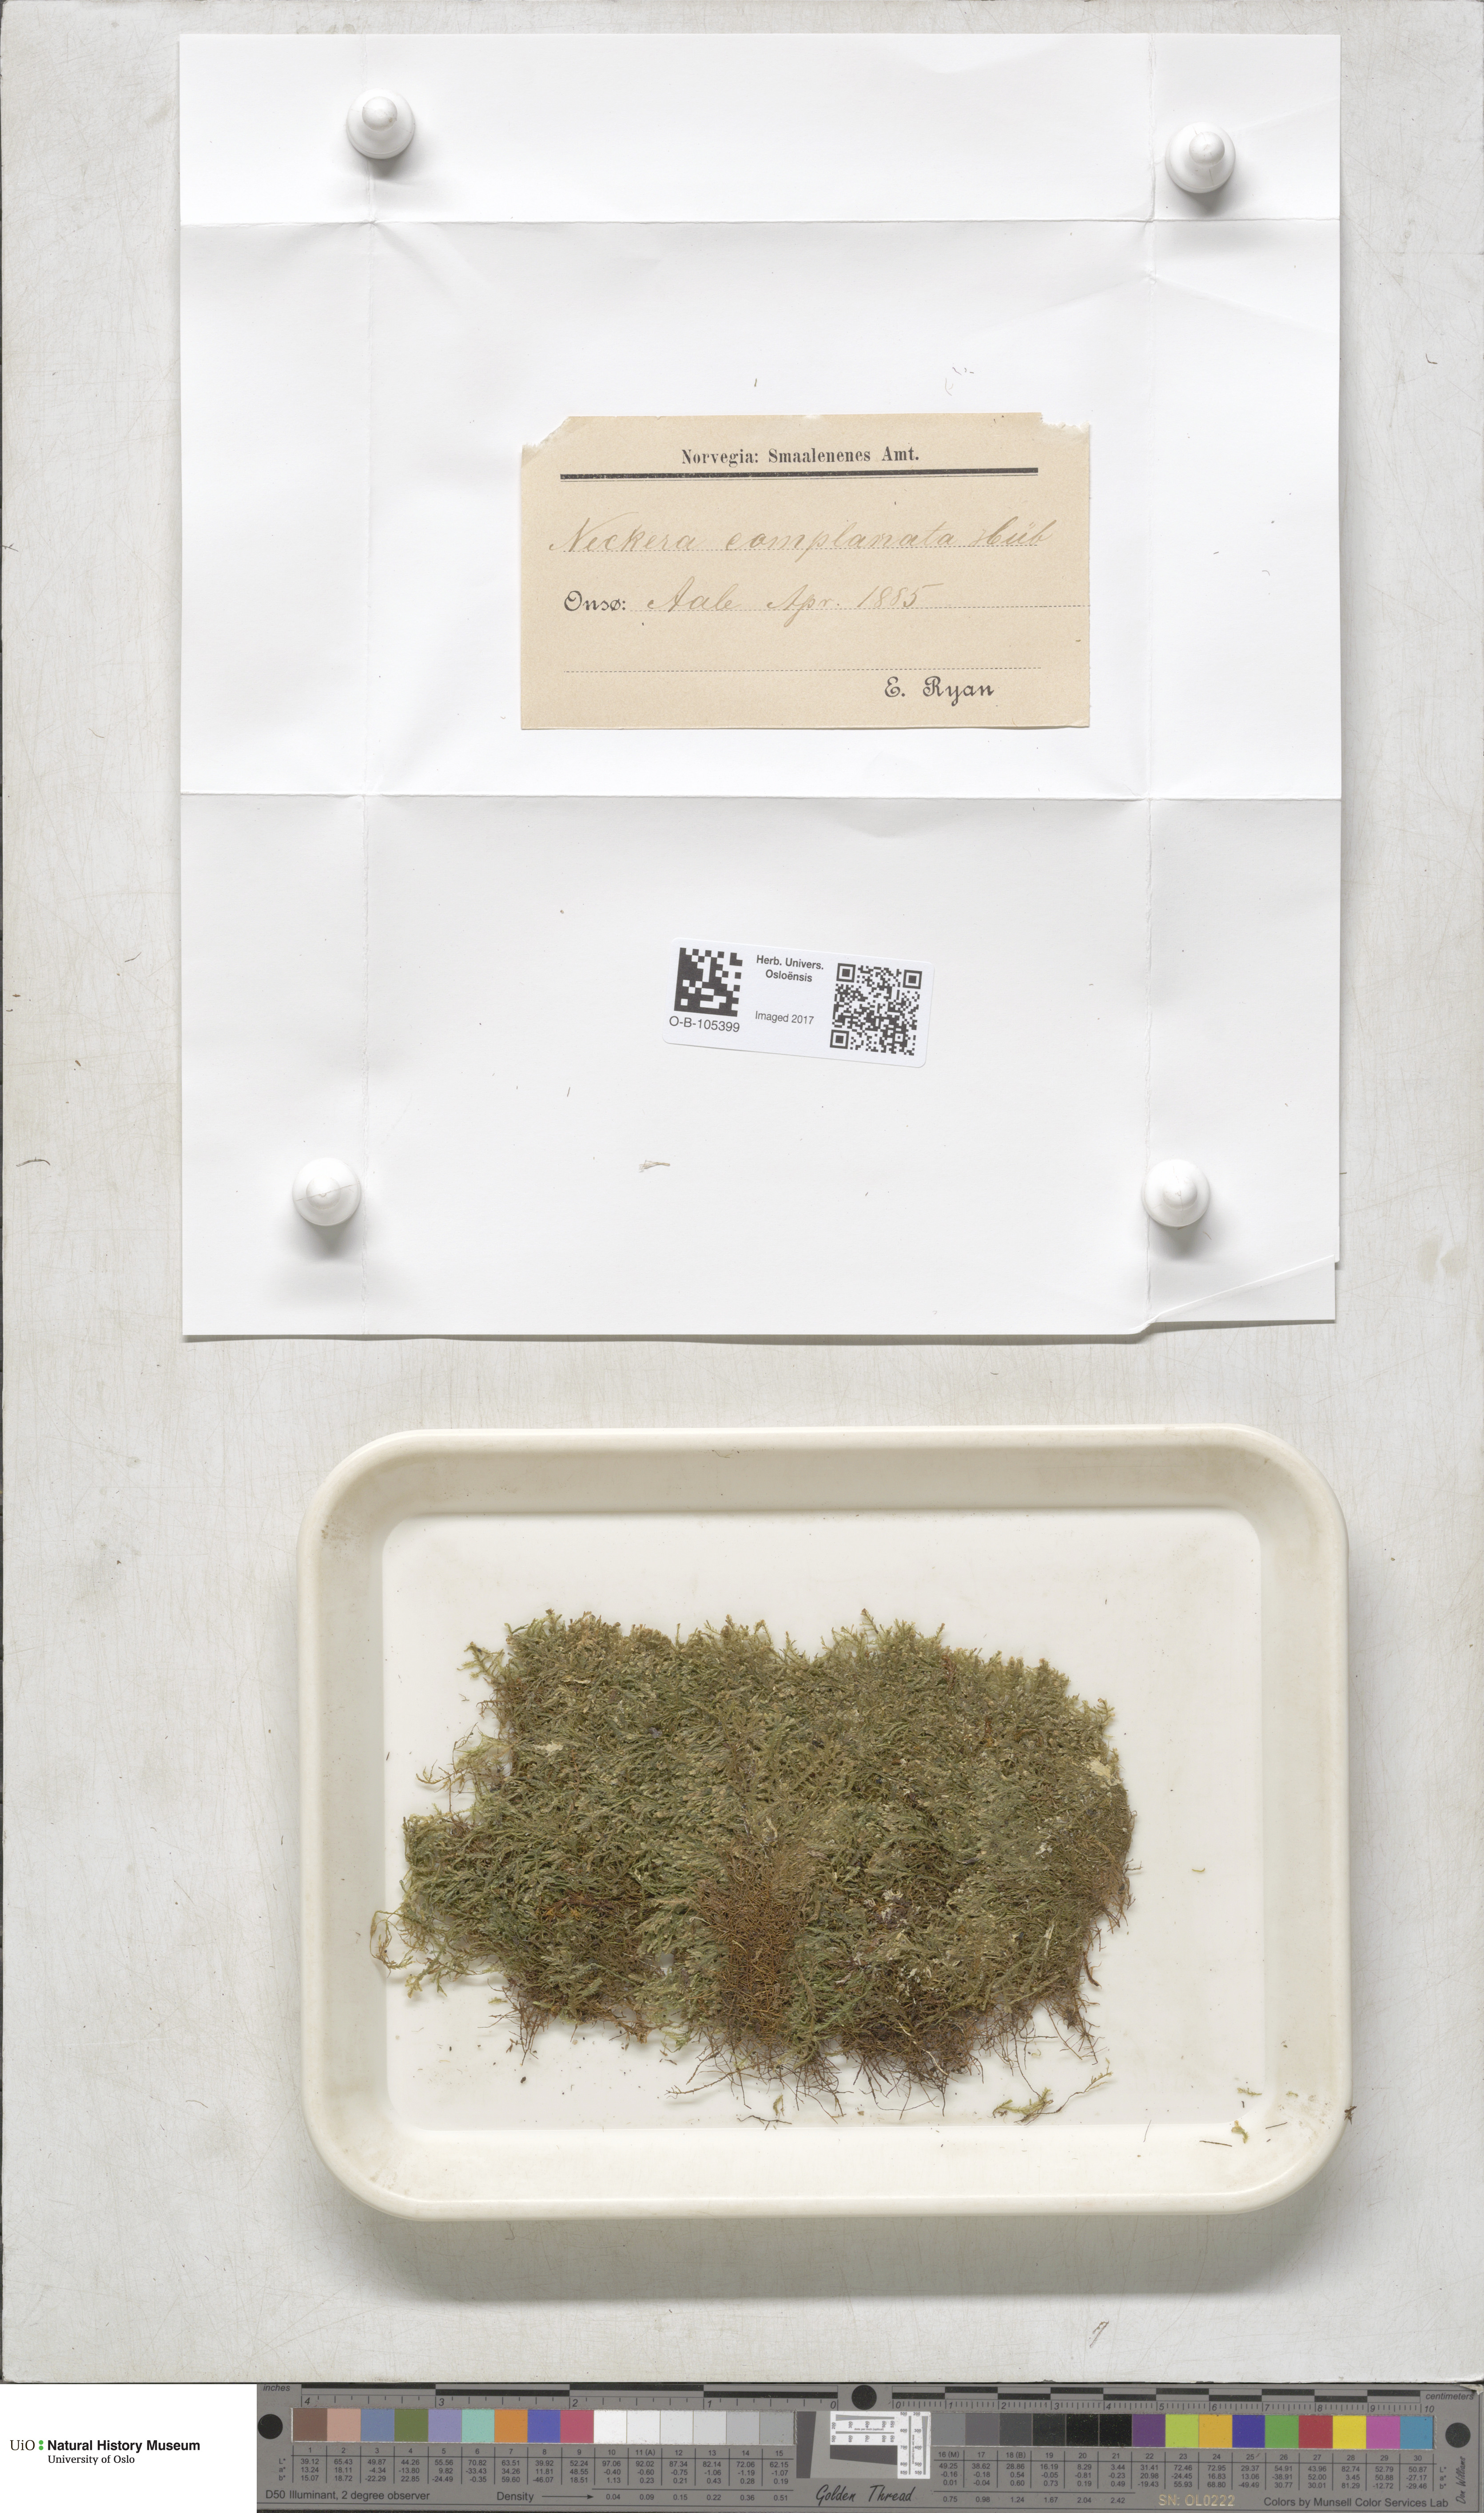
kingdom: Plantae
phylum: Bryophyta
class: Bryopsida
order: Hypnales
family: Neckeraceae
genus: Alleniella
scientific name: Alleniella complanata
